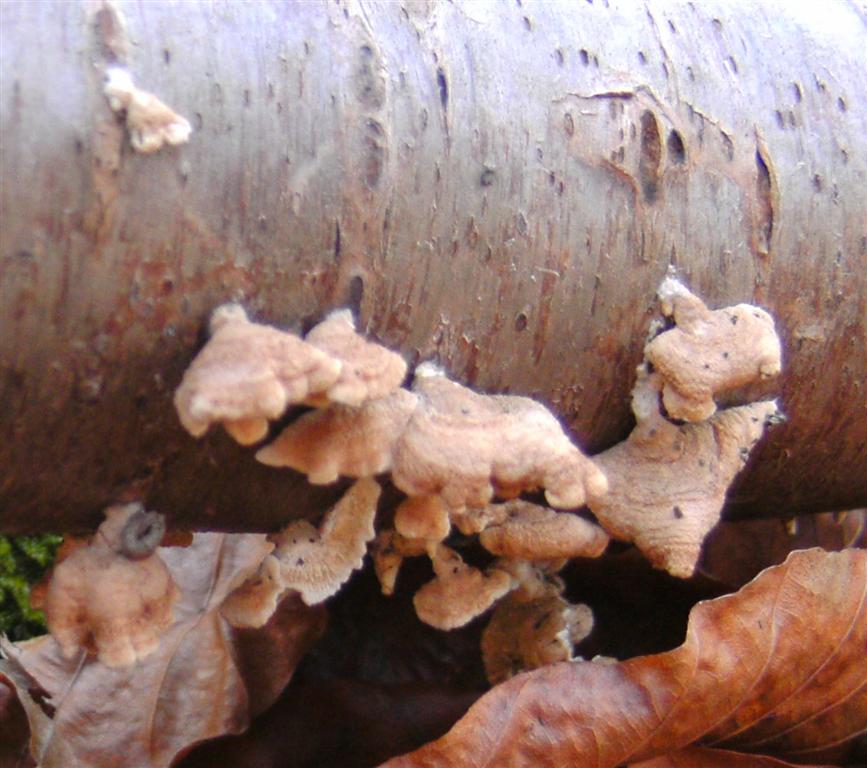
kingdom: Fungi
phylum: Basidiomycota
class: Agaricomycetes
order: Amylocorticiales
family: Amylocorticiaceae
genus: Plicaturopsis
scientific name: Plicaturopsis crispa
